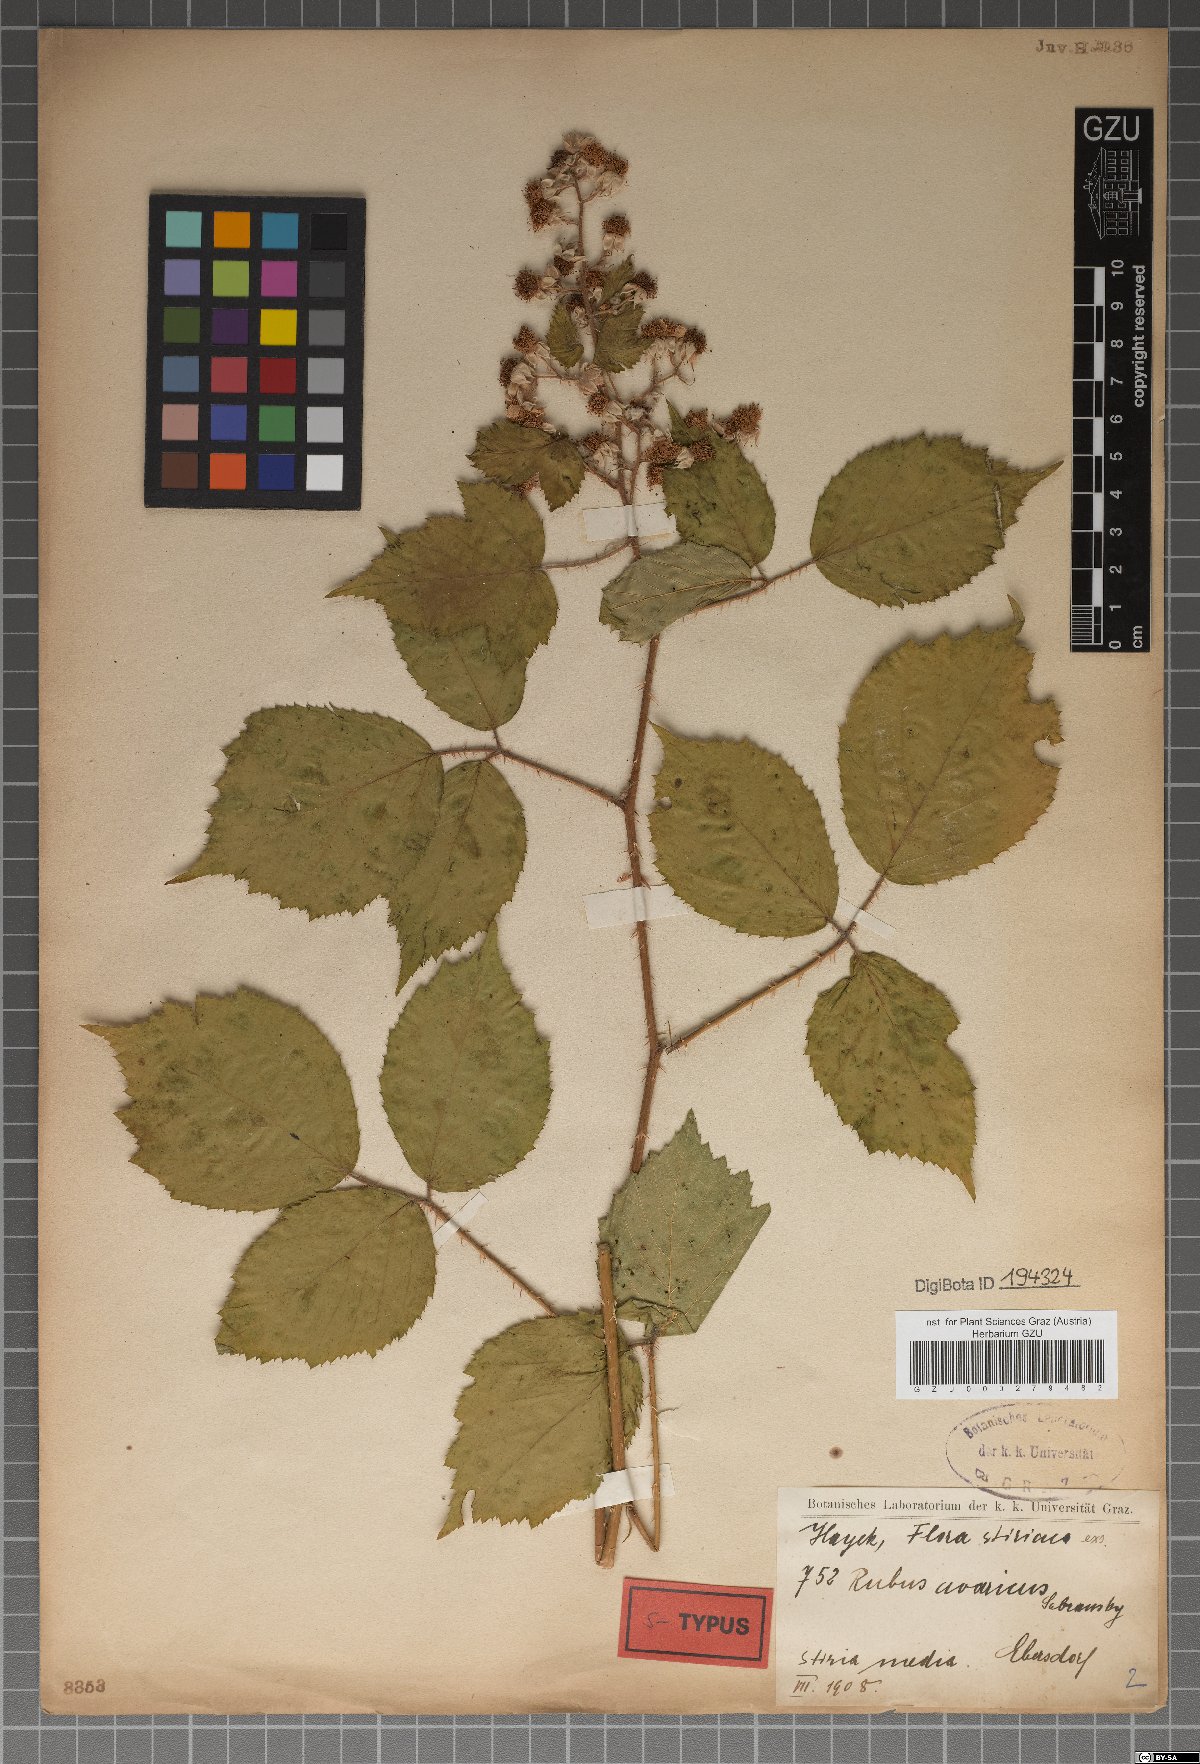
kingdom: Plantae
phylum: Tracheophyta
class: Magnoliopsida
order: Rosales
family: Rosaceae
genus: Rubus
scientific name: Rubus avaricus
